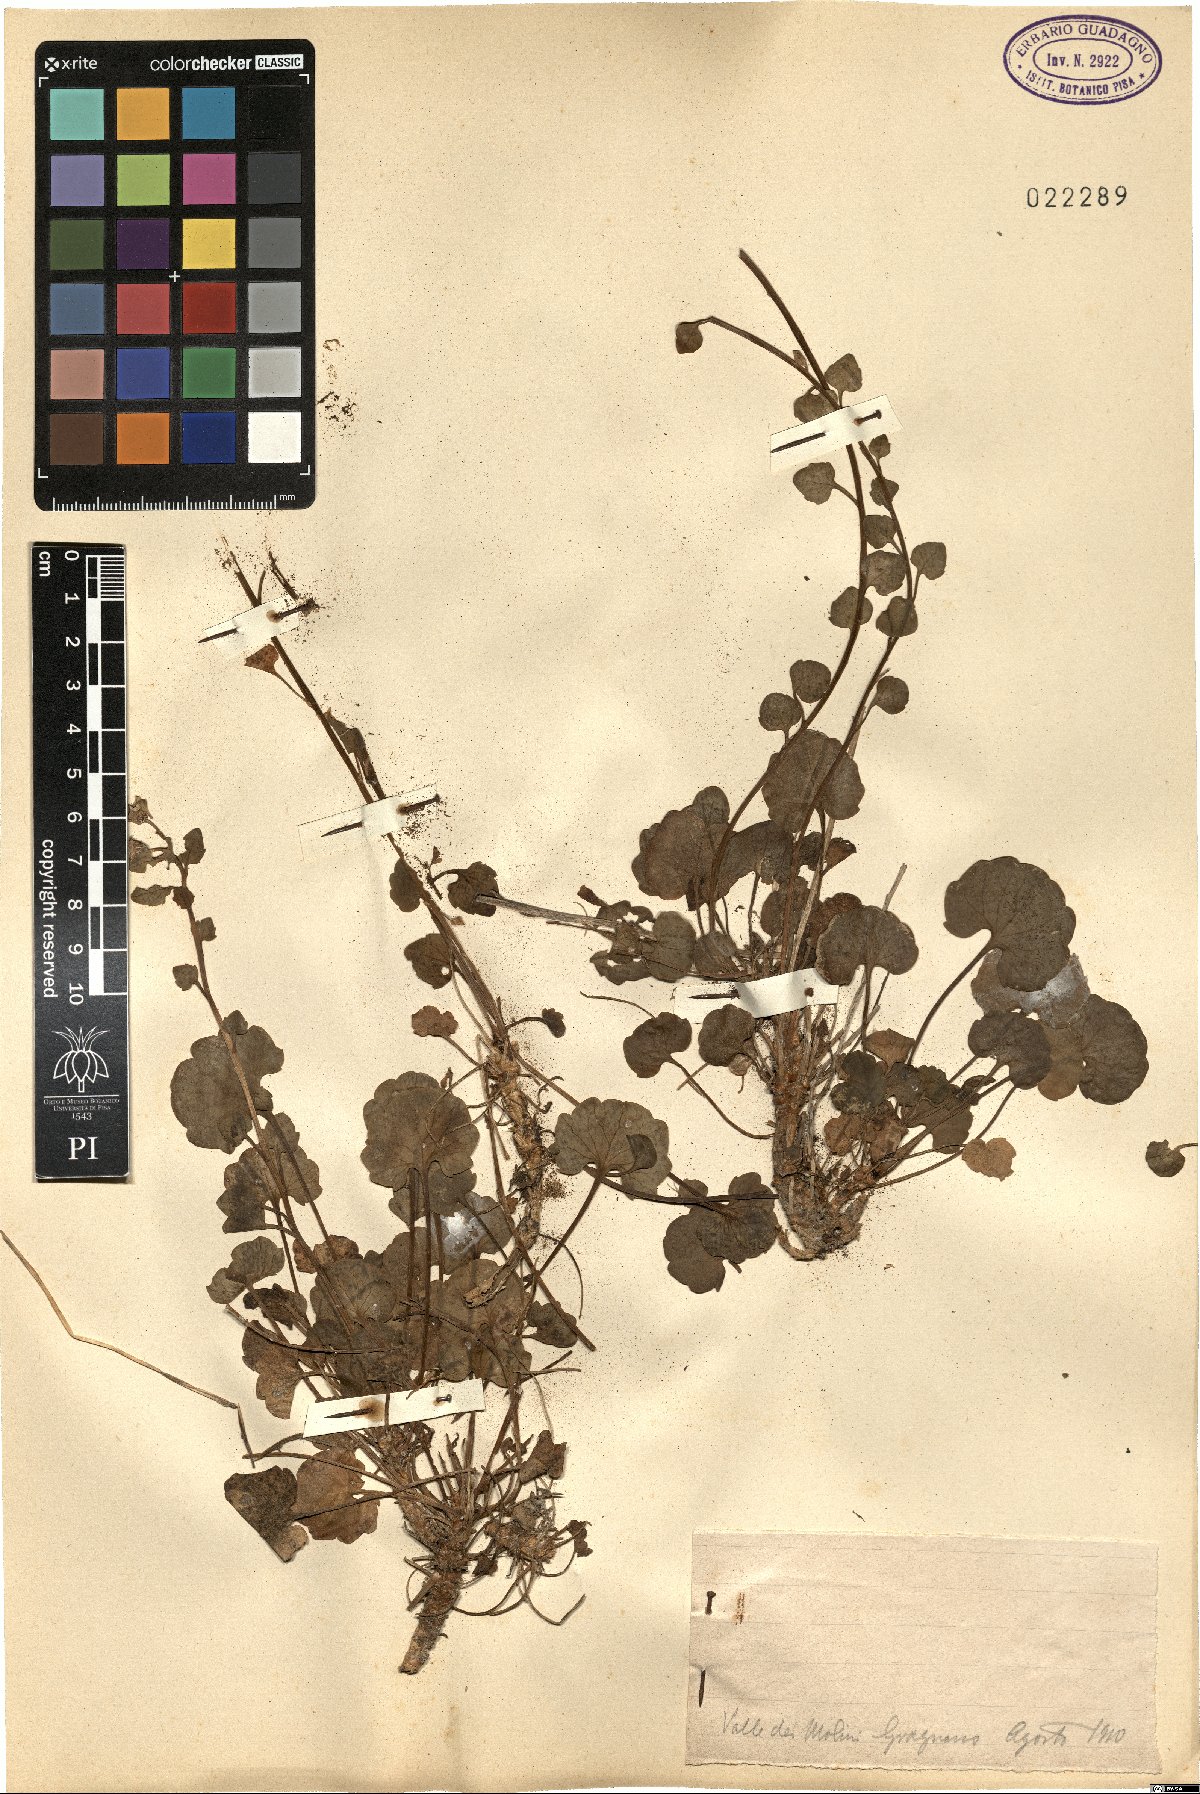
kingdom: Plantae
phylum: Tracheophyta
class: Magnoliopsida
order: Asterales
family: Campanulaceae
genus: Campanula
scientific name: Campanula
